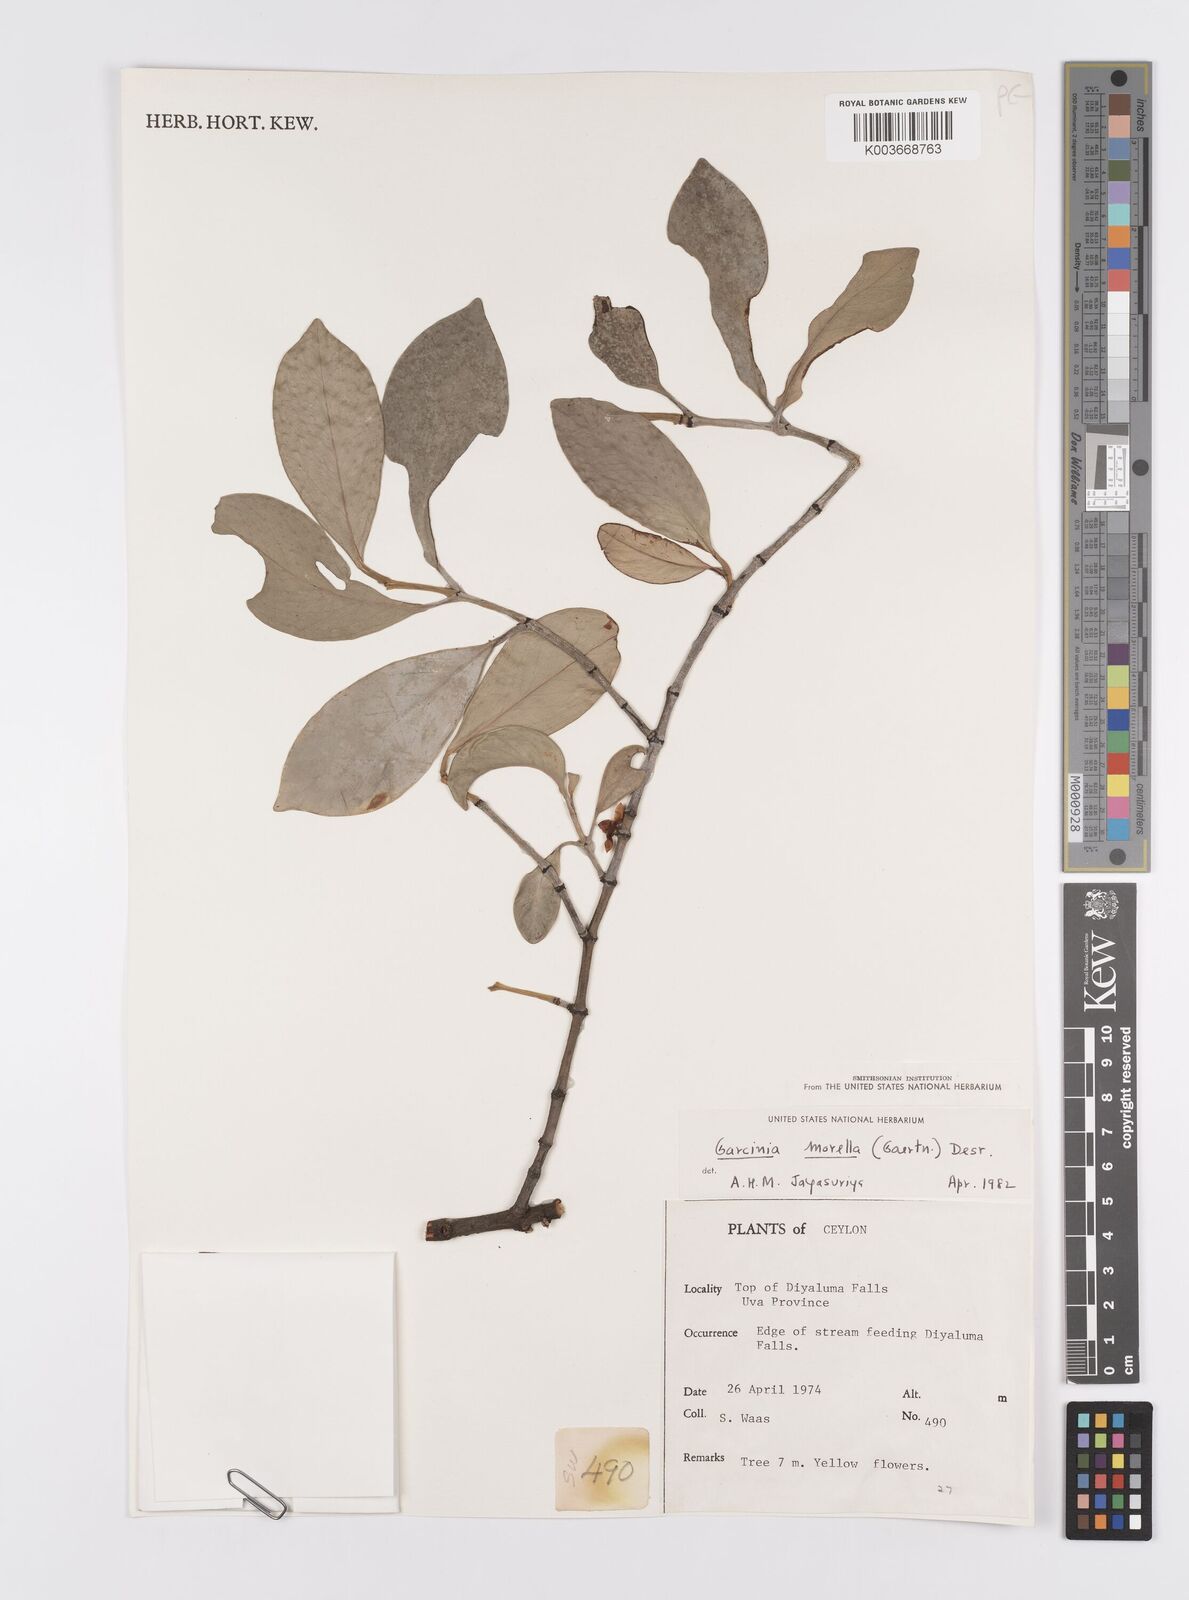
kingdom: Plantae
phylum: Tracheophyta
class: Magnoliopsida
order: Malpighiales
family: Clusiaceae
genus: Garcinia
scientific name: Garcinia morella
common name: Indian gamboge-tree
